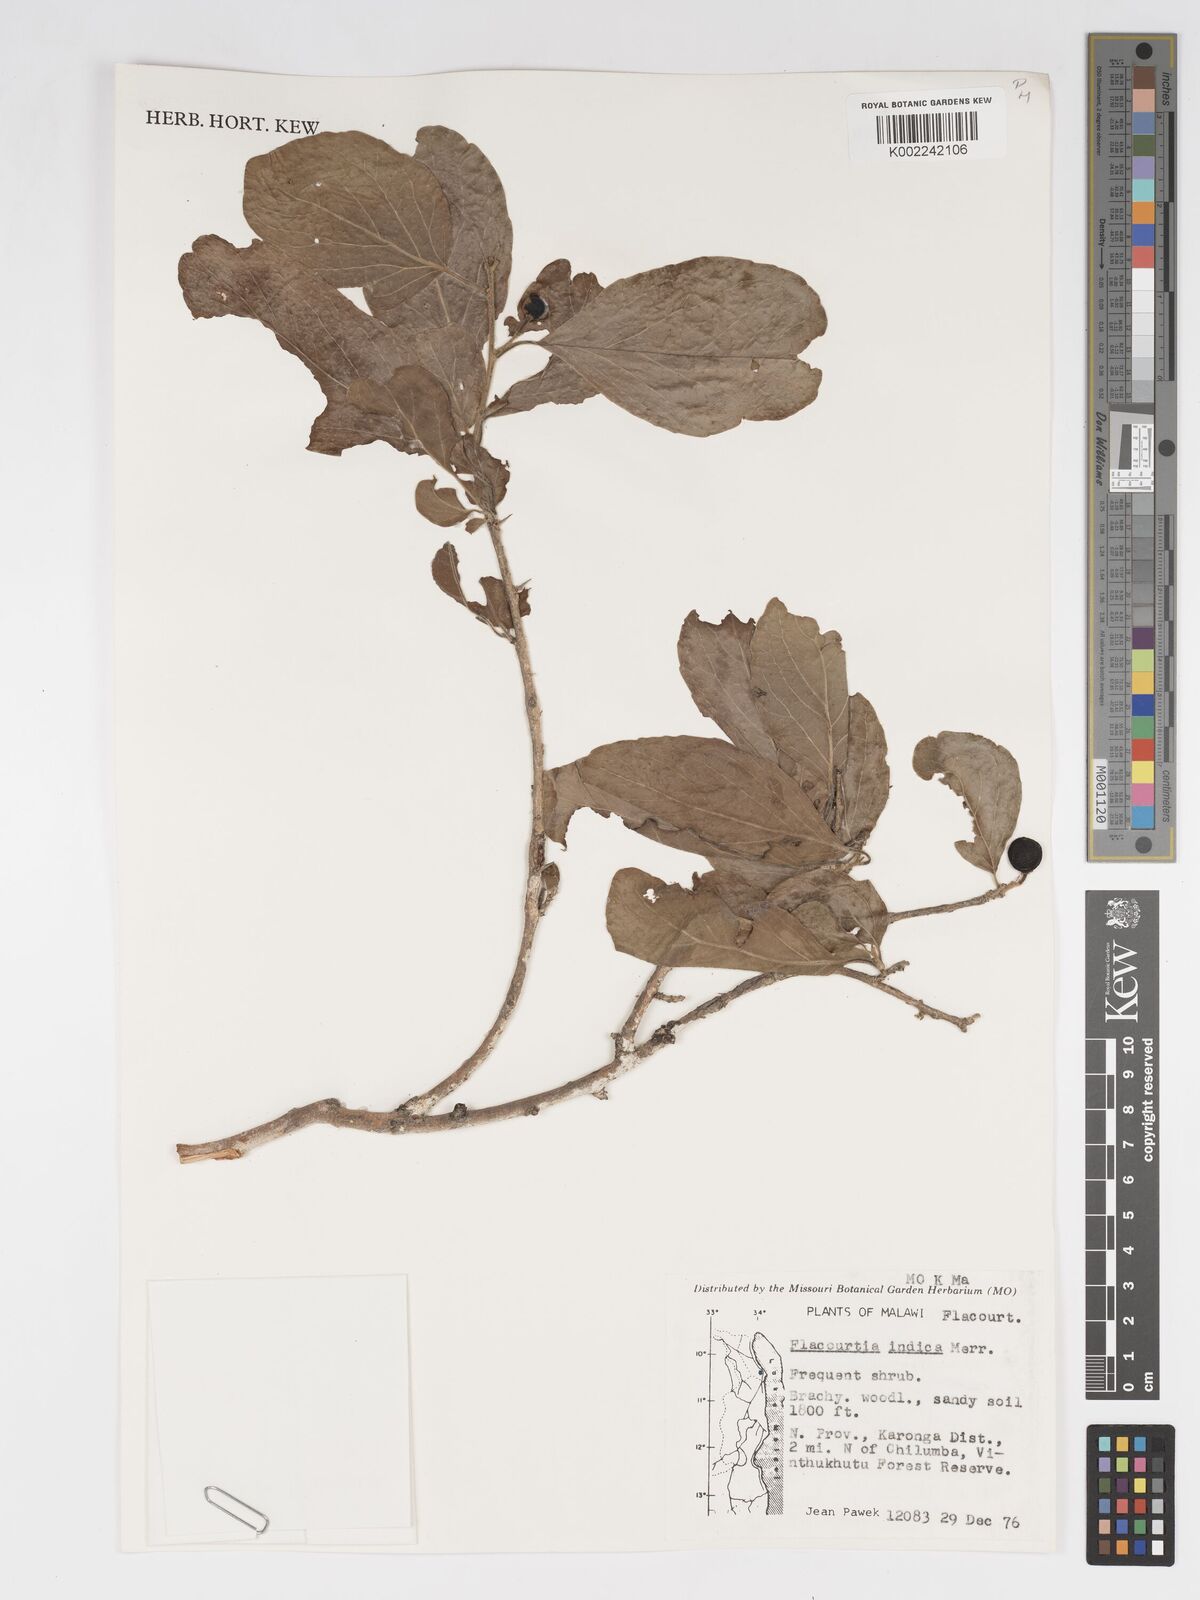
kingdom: Plantae
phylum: Tracheophyta
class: Magnoliopsida
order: Malpighiales
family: Salicaceae
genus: Flacourtia
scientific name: Flacourtia indica
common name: Governor's plum
